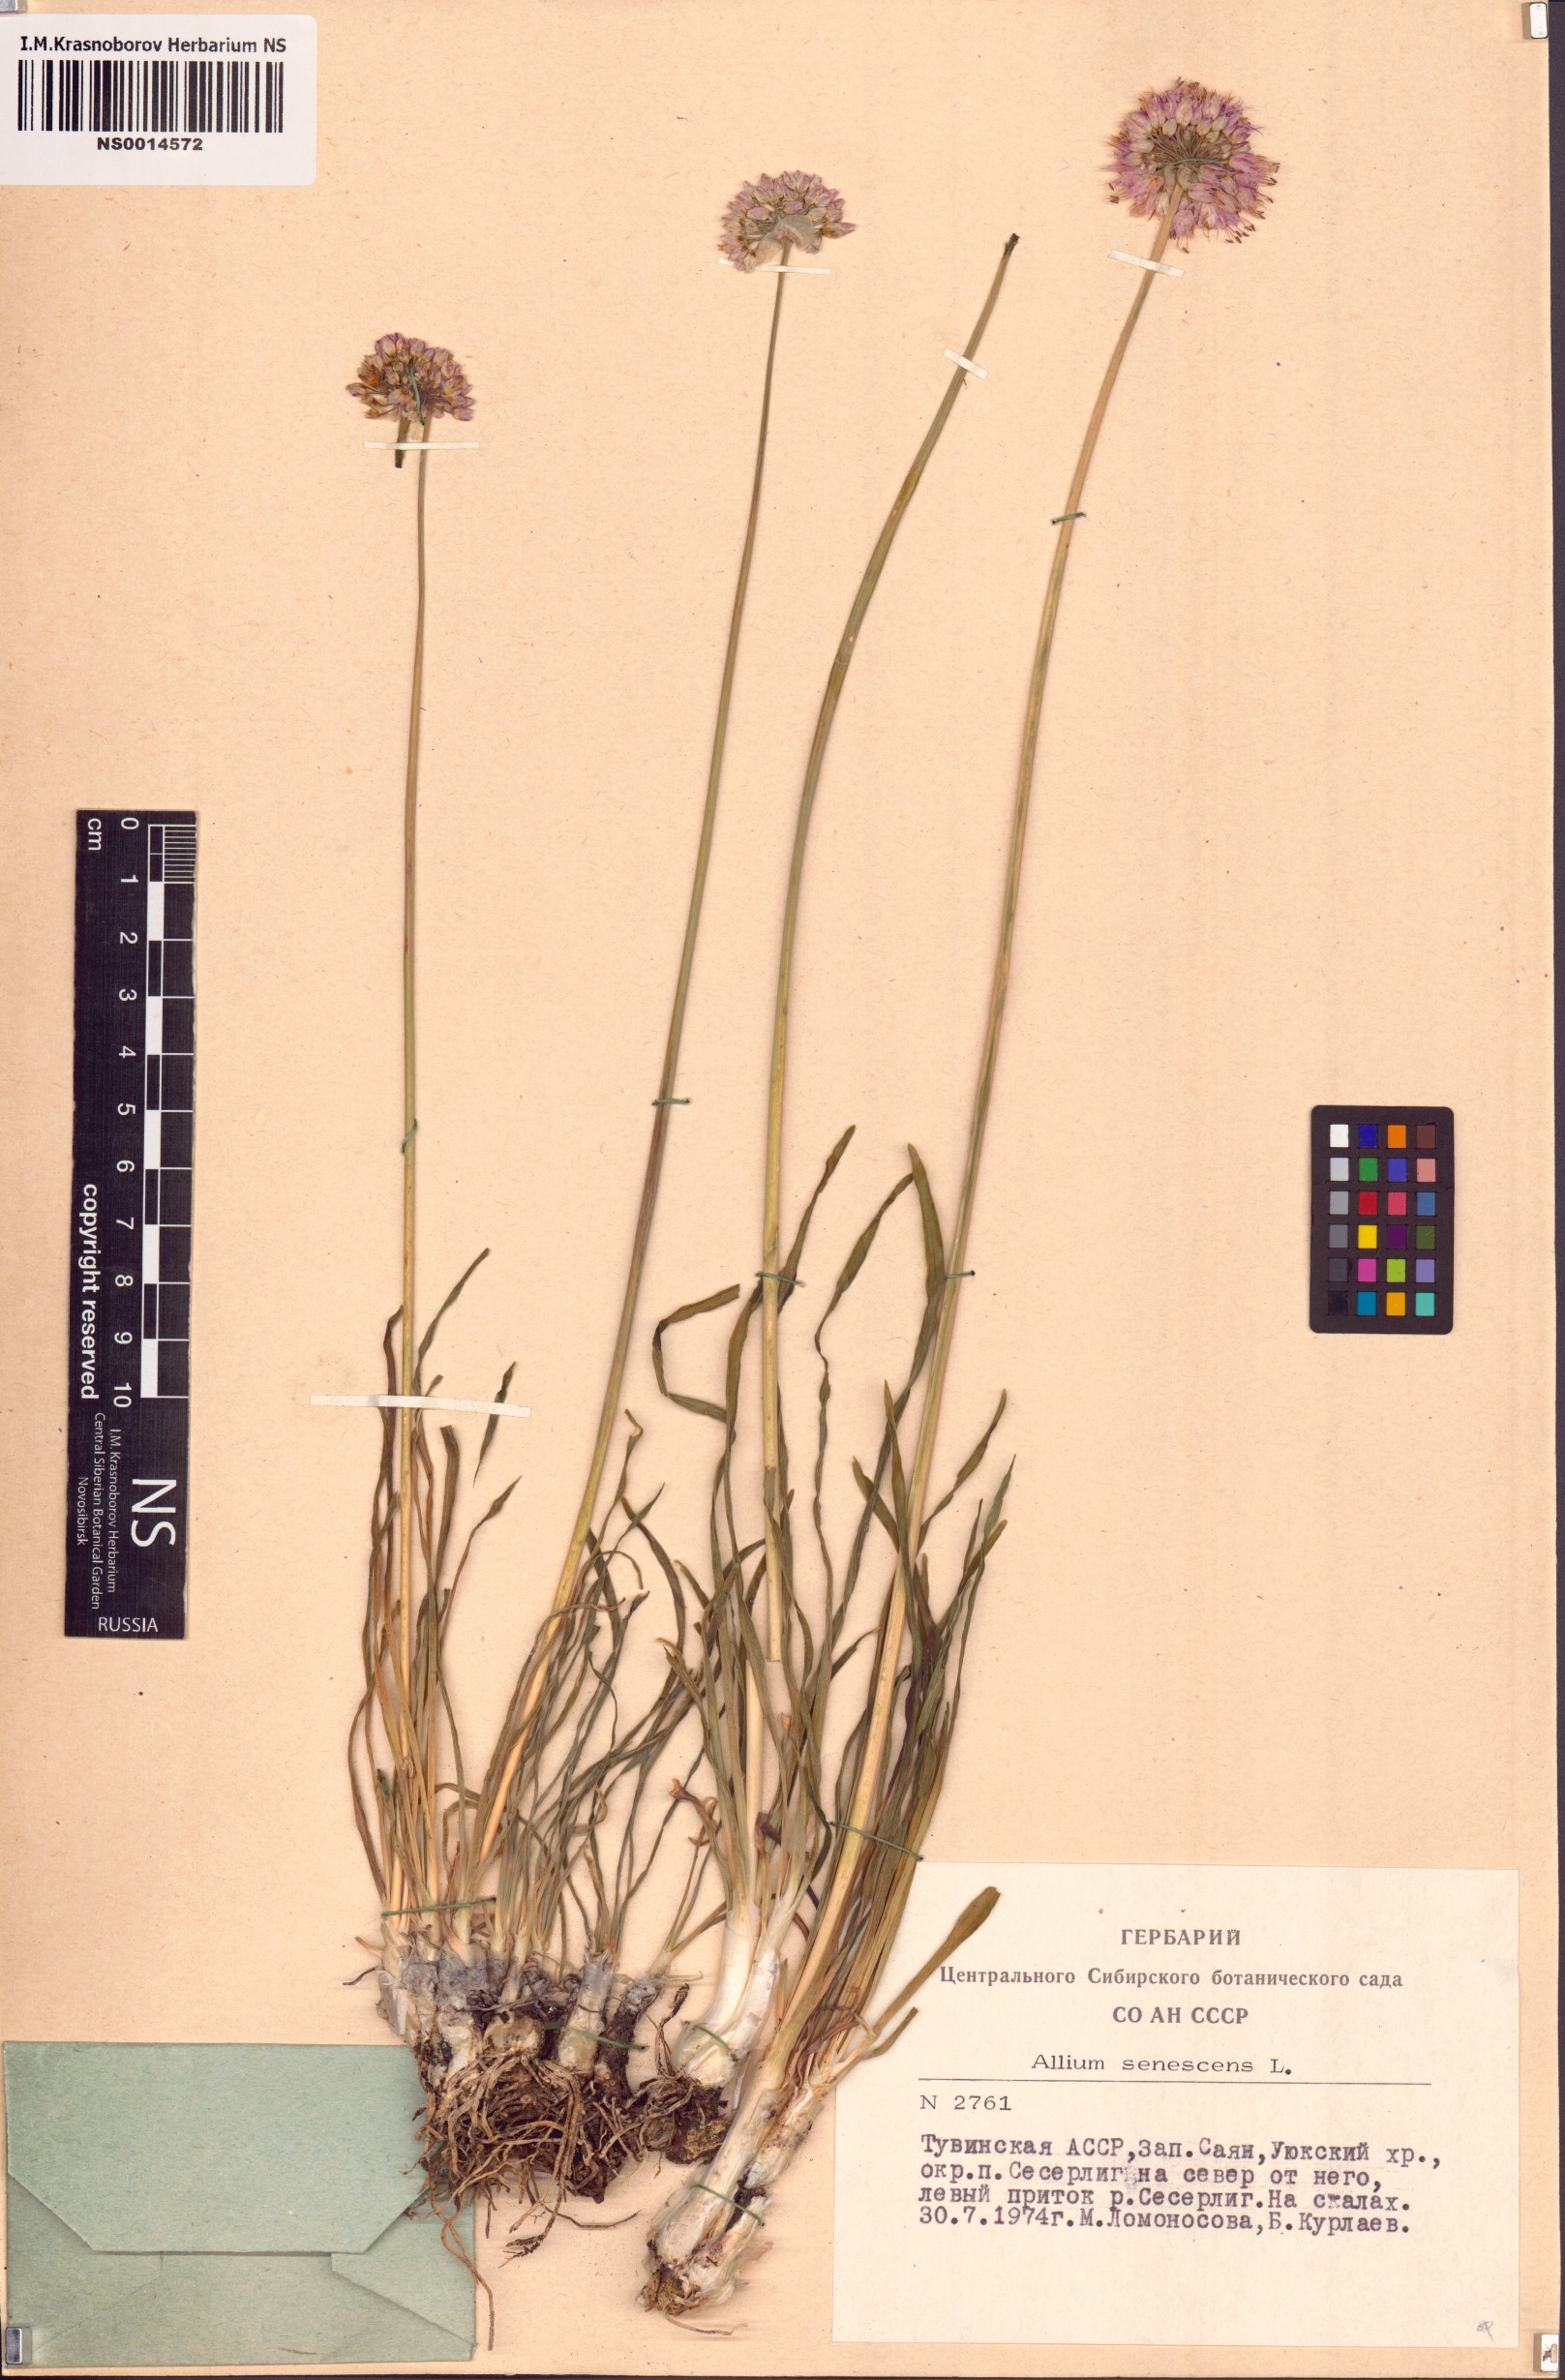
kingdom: Plantae
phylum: Tracheophyta
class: Liliopsida
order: Asparagales
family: Amaryllidaceae
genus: Allium
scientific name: Allium senescens
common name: German garlic
